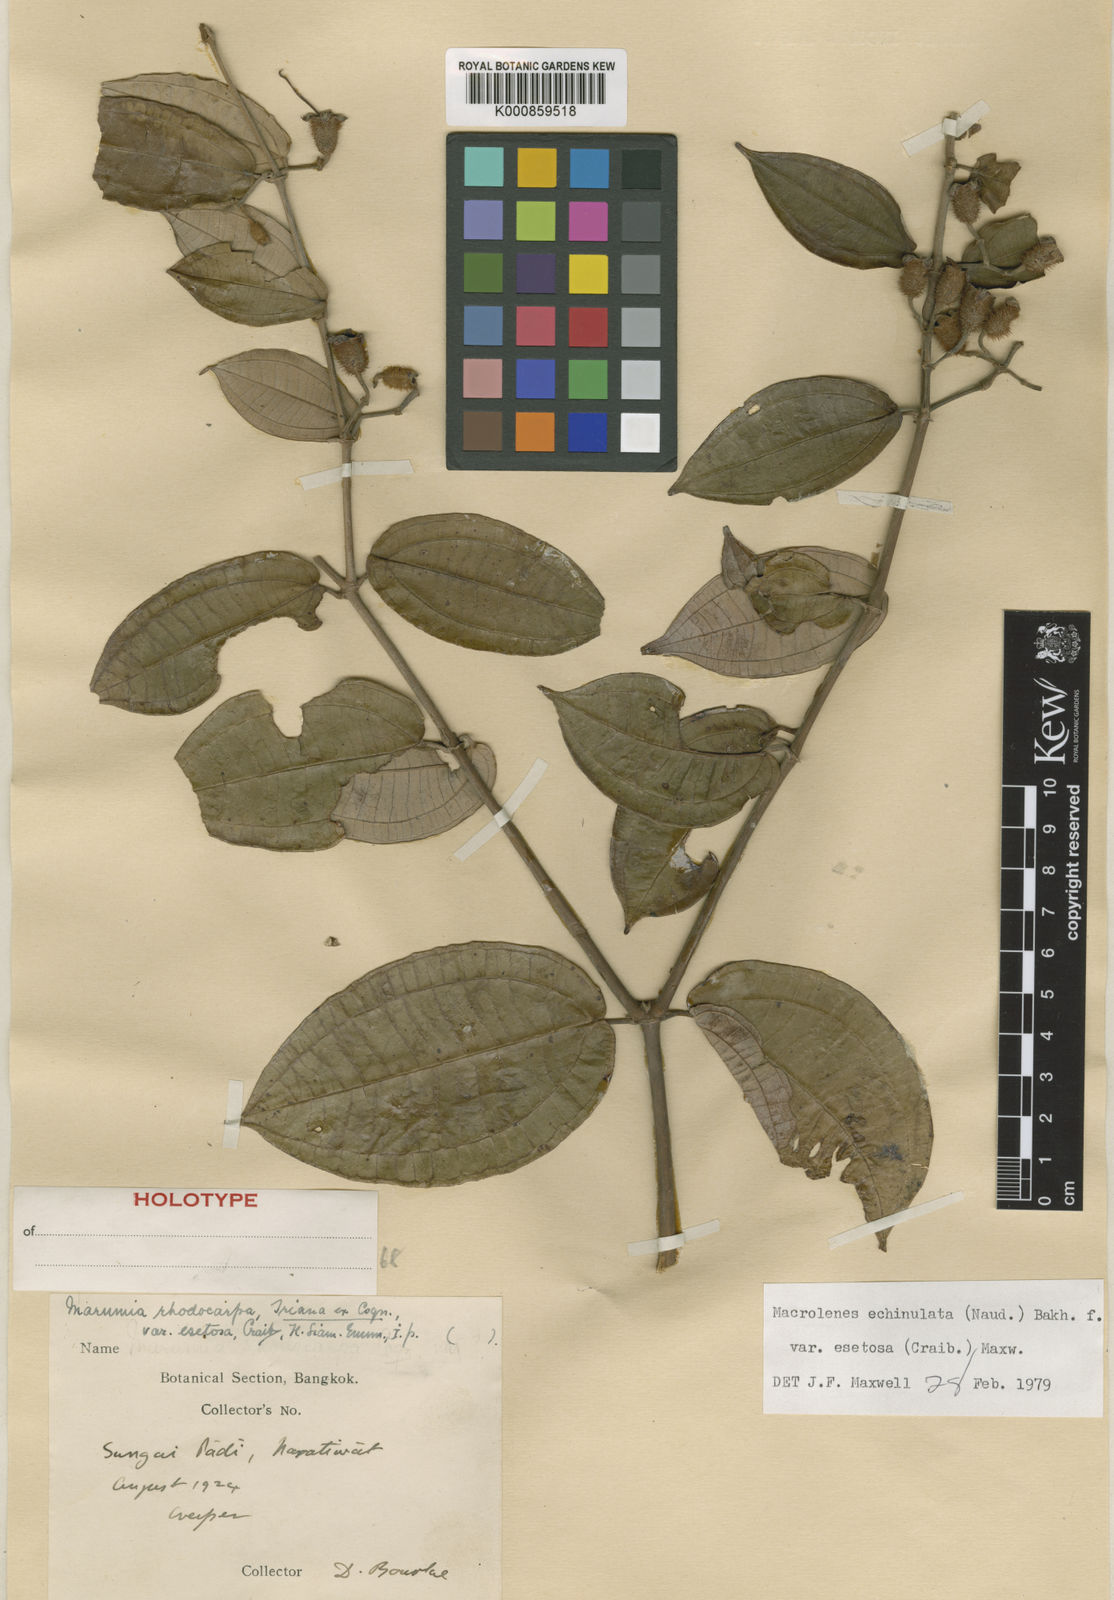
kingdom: Plantae
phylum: Tracheophyta
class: Magnoliopsida
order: Myrtales
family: Melastomataceae
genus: Macrolenes
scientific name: Macrolenes echinulata
